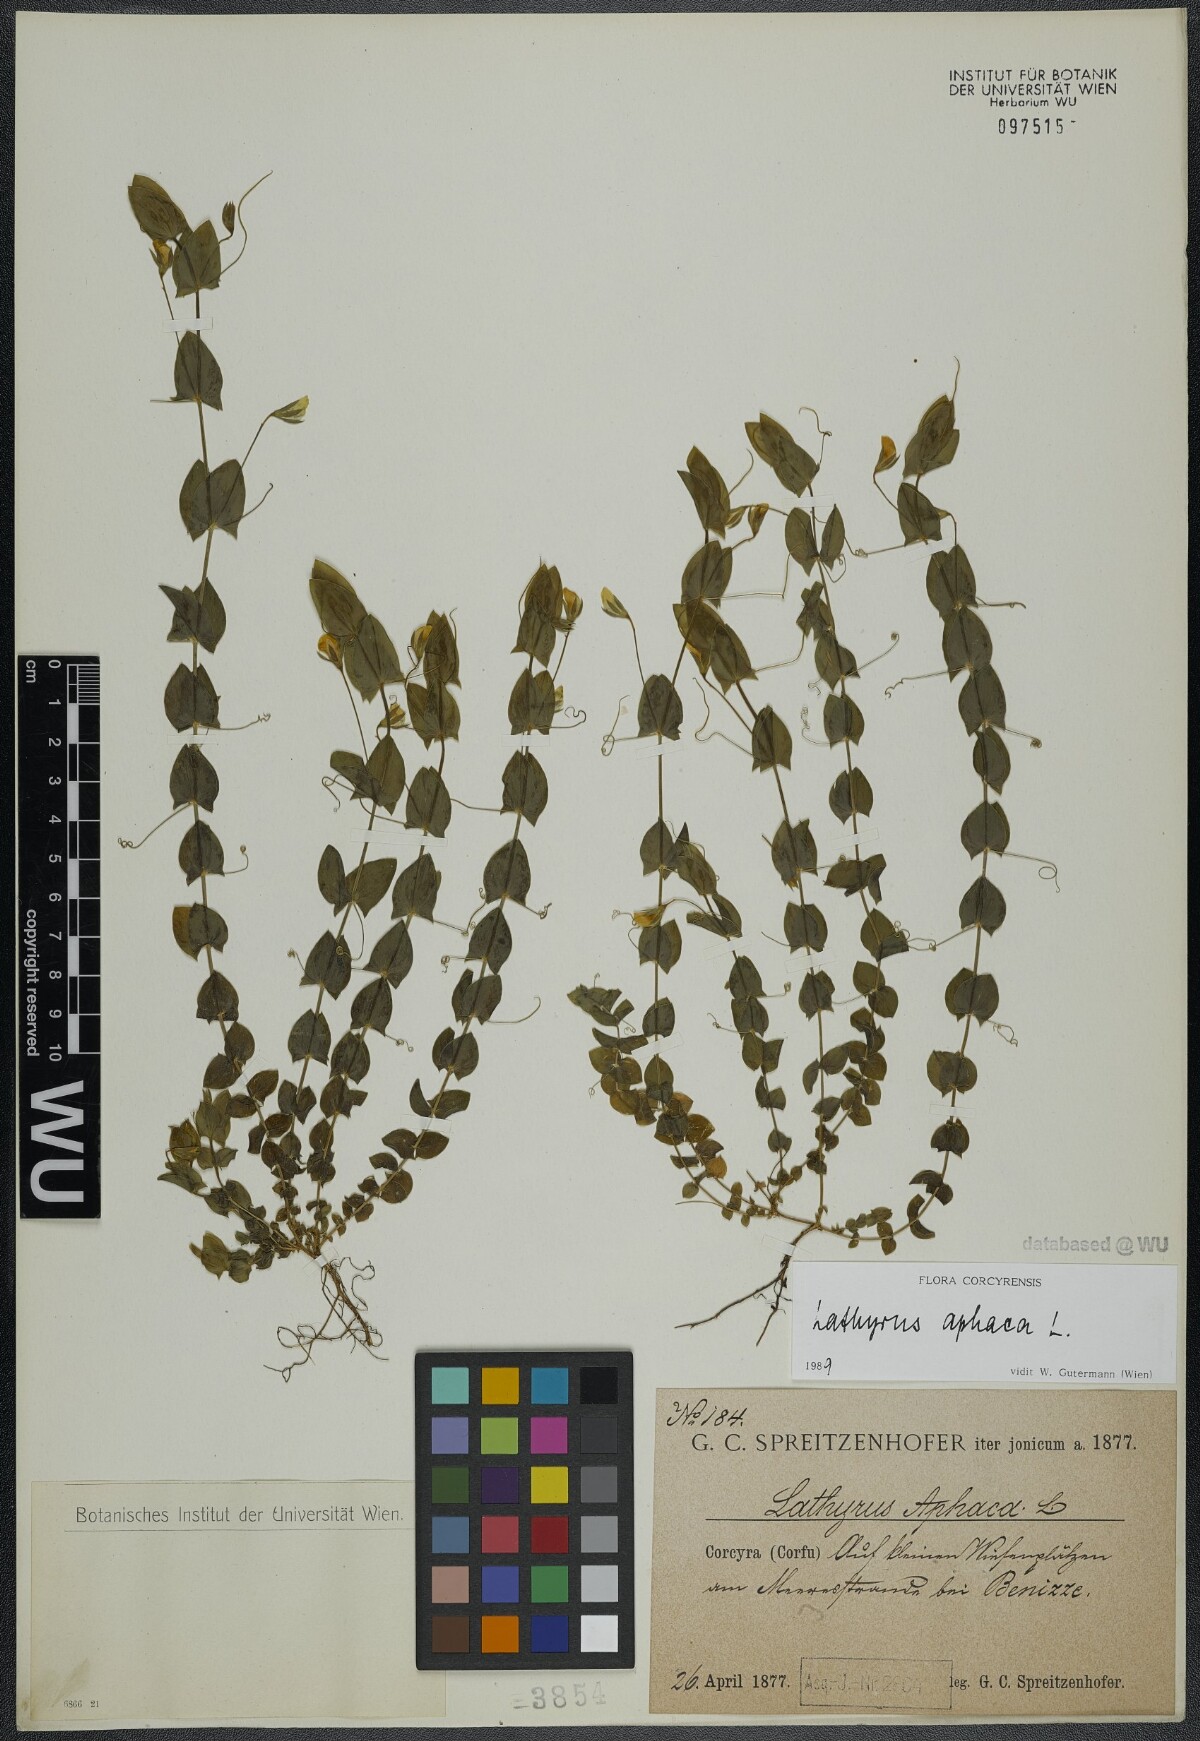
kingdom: Plantae
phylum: Tracheophyta
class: Magnoliopsida
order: Fabales
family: Fabaceae
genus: Lathyrus
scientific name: Lathyrus aphaca
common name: Yellow vetchling
